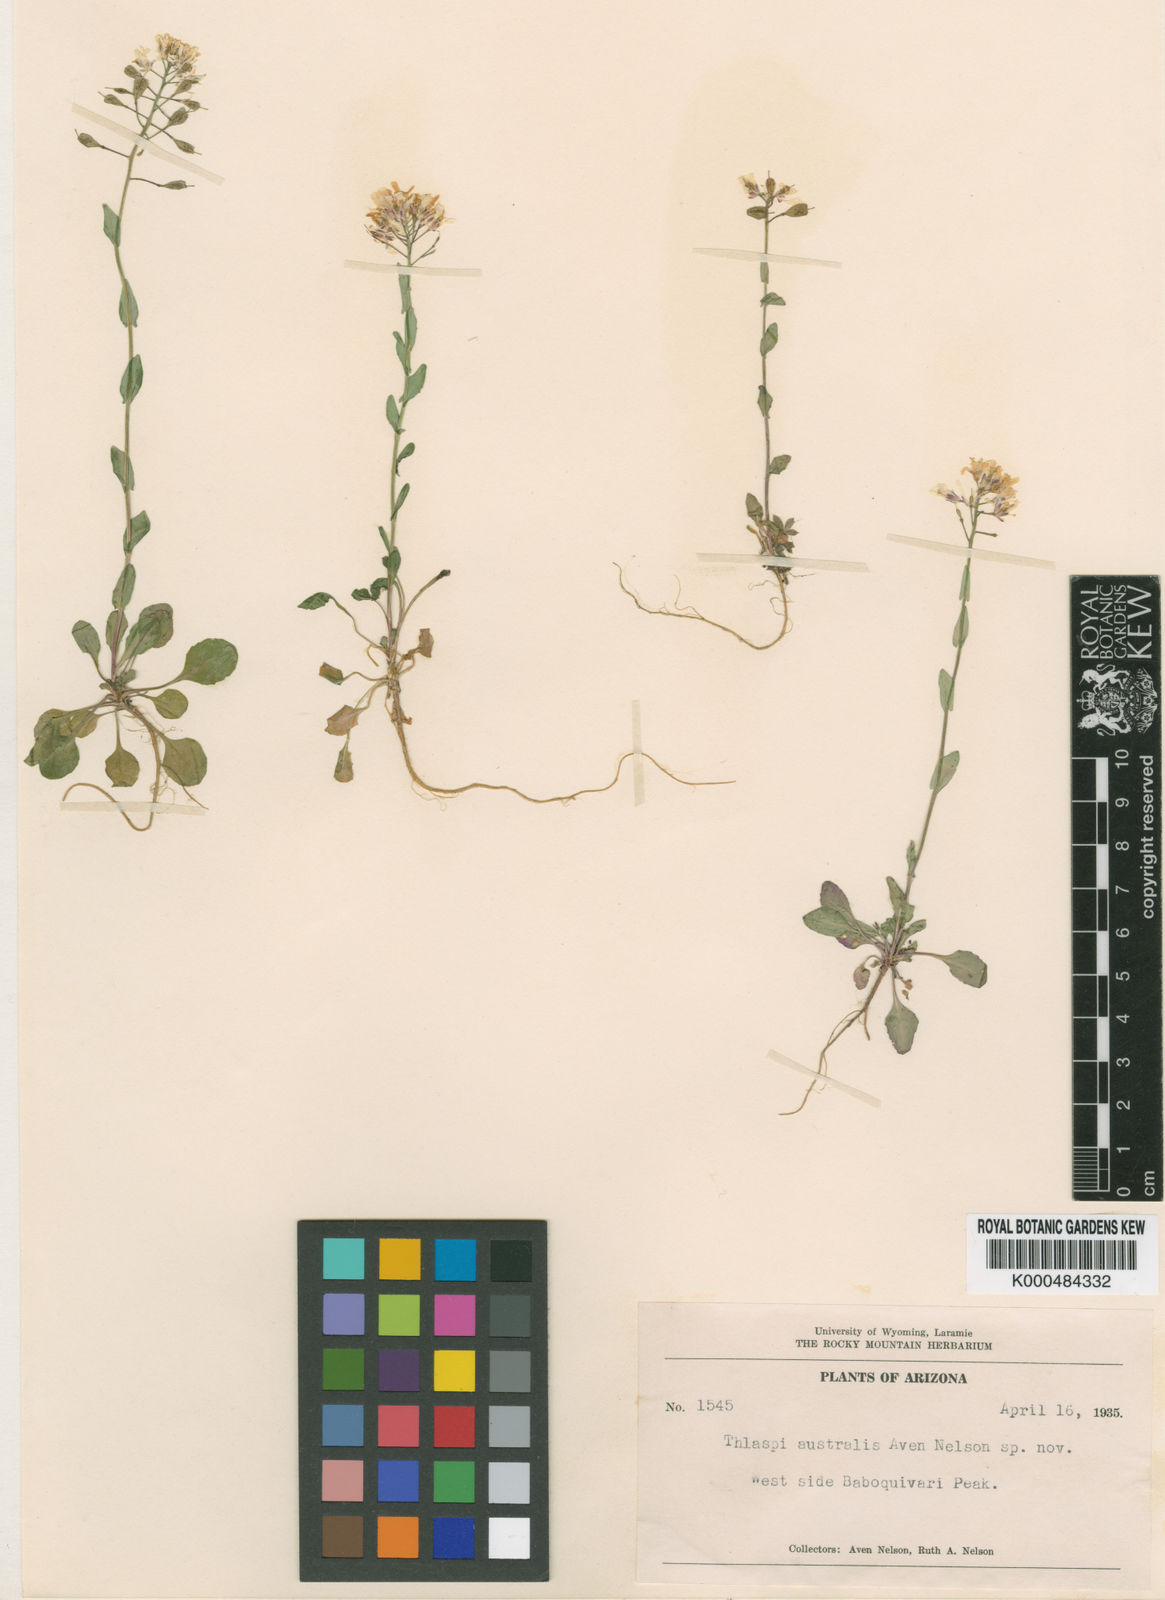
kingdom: Plantae
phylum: Tracheophyta
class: Magnoliopsida
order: Brassicales
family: Brassicaceae
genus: Thlaspi
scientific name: Thlaspi
